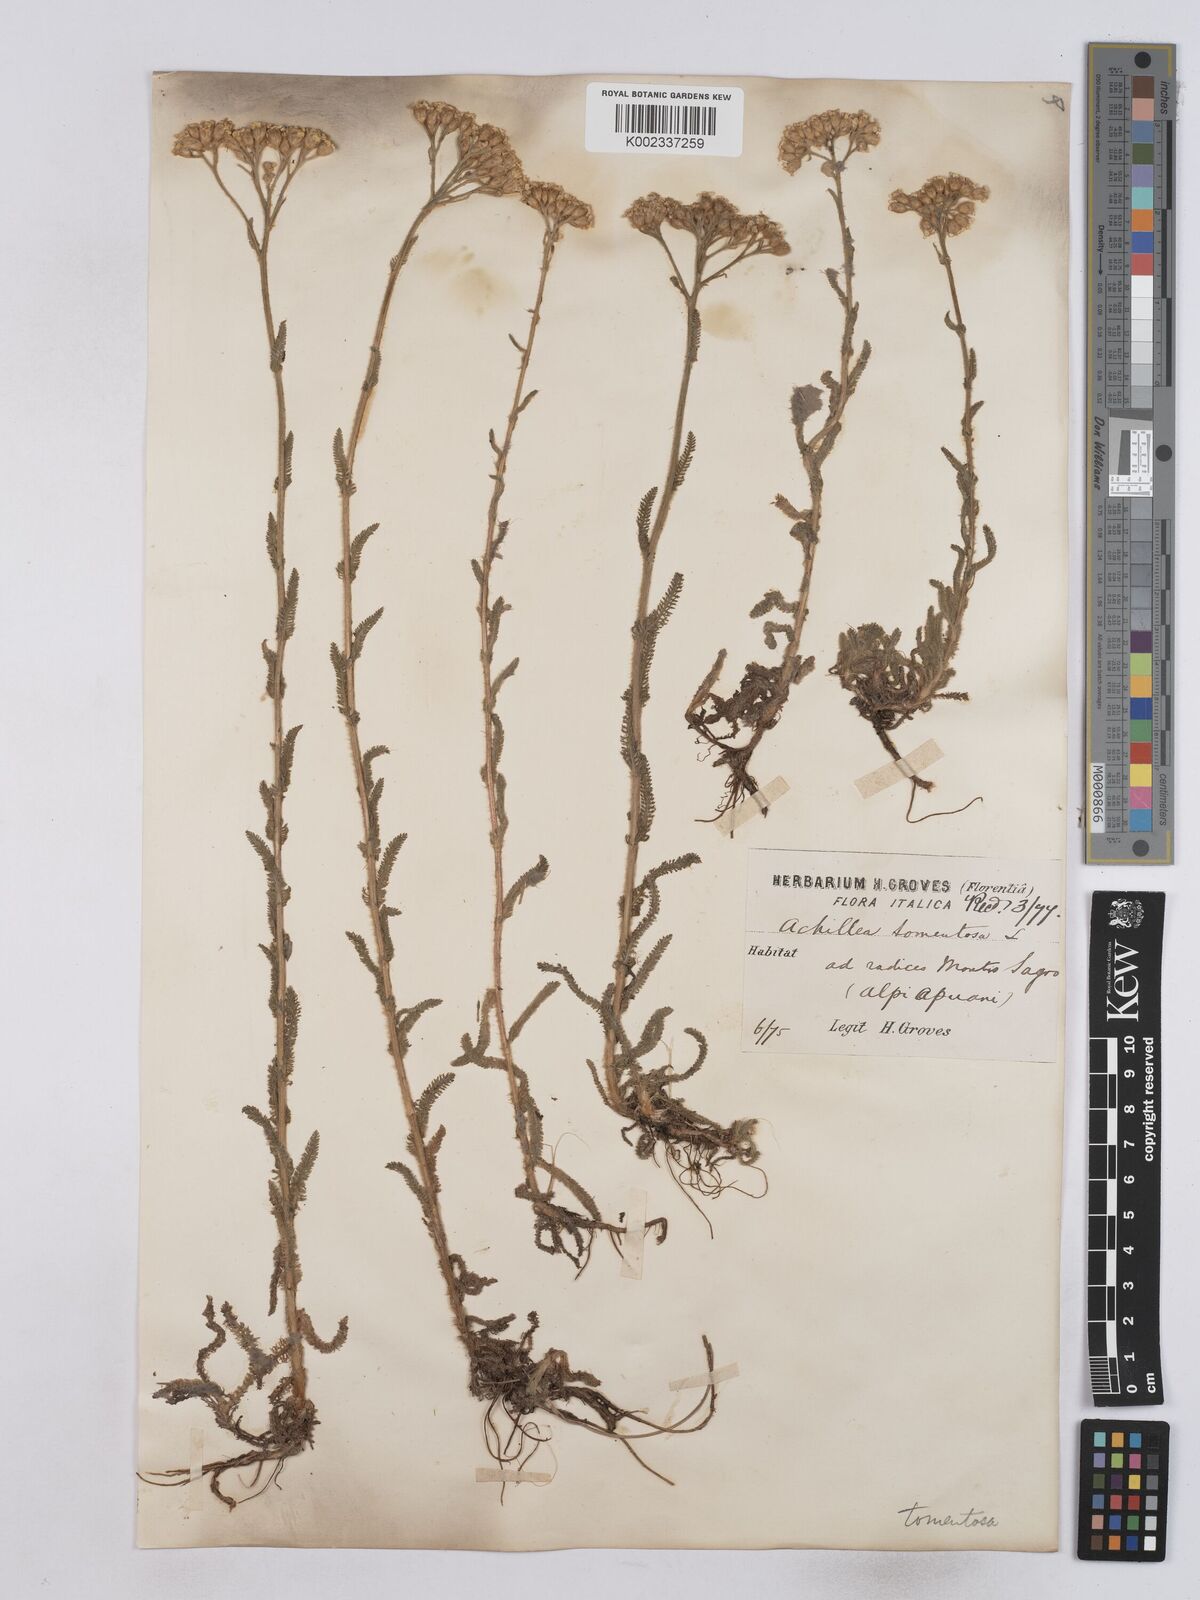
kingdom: Plantae
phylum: Tracheophyta
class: Magnoliopsida
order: Asterales
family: Asteraceae
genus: Achillea
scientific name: Achillea tomentosa
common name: Yellow milfoil
